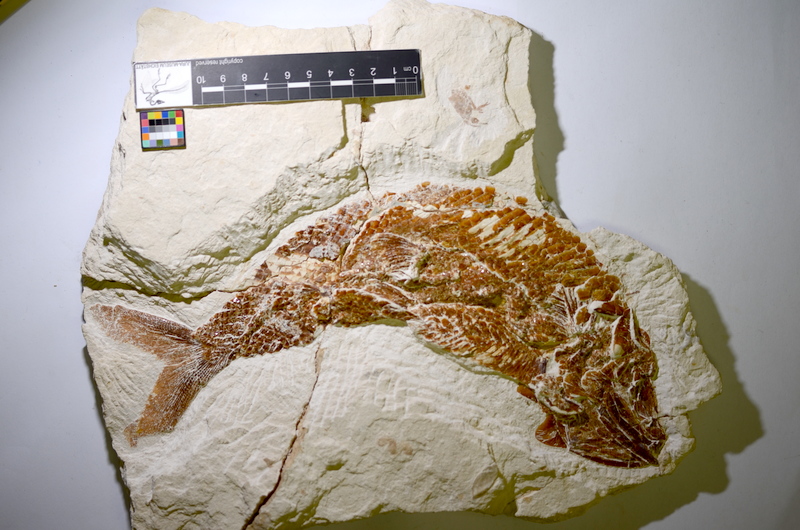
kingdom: Animalia
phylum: Chordata
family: Ankylophoridae
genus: Siemensichthys
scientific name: Siemensichthys siemensi
